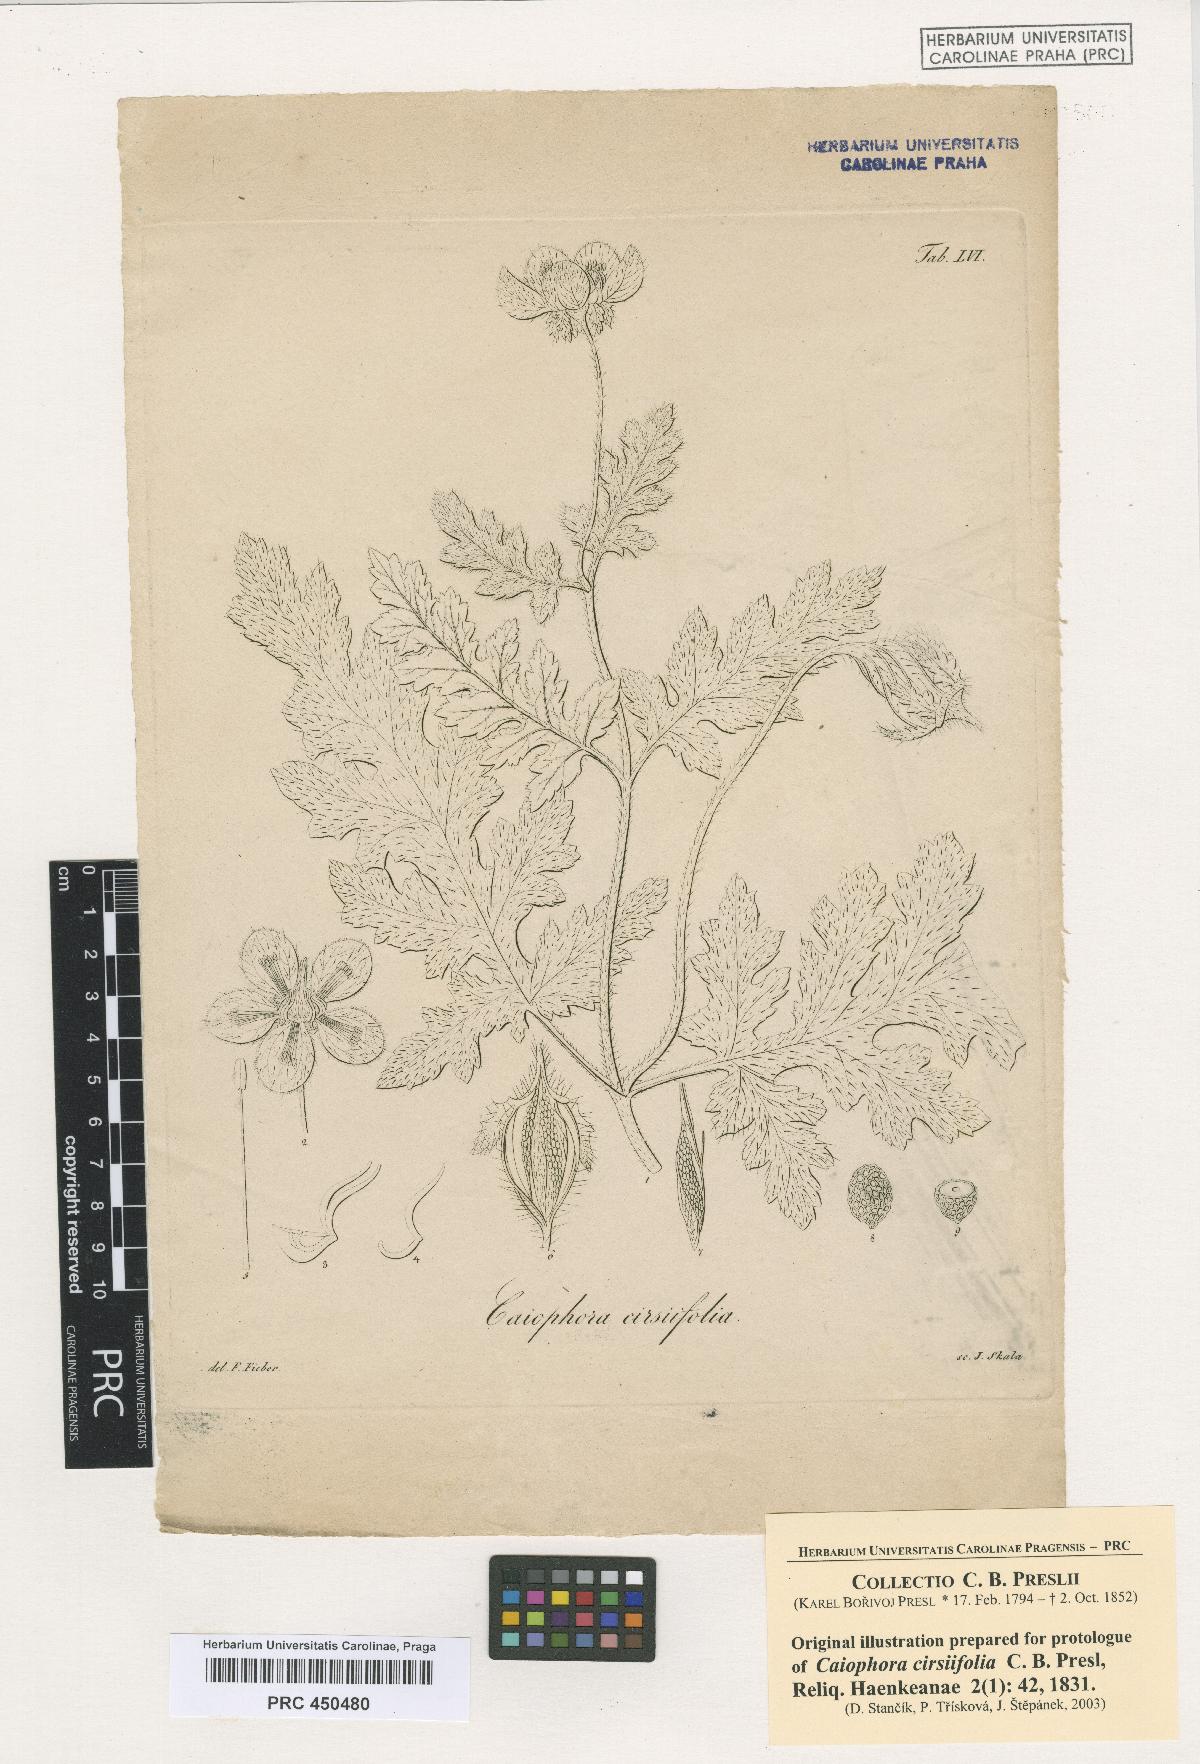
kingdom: Plantae
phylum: Tracheophyta
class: Magnoliopsida
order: Cornales
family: Loasaceae
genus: Caiophora
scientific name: Caiophora cirsiifolia
